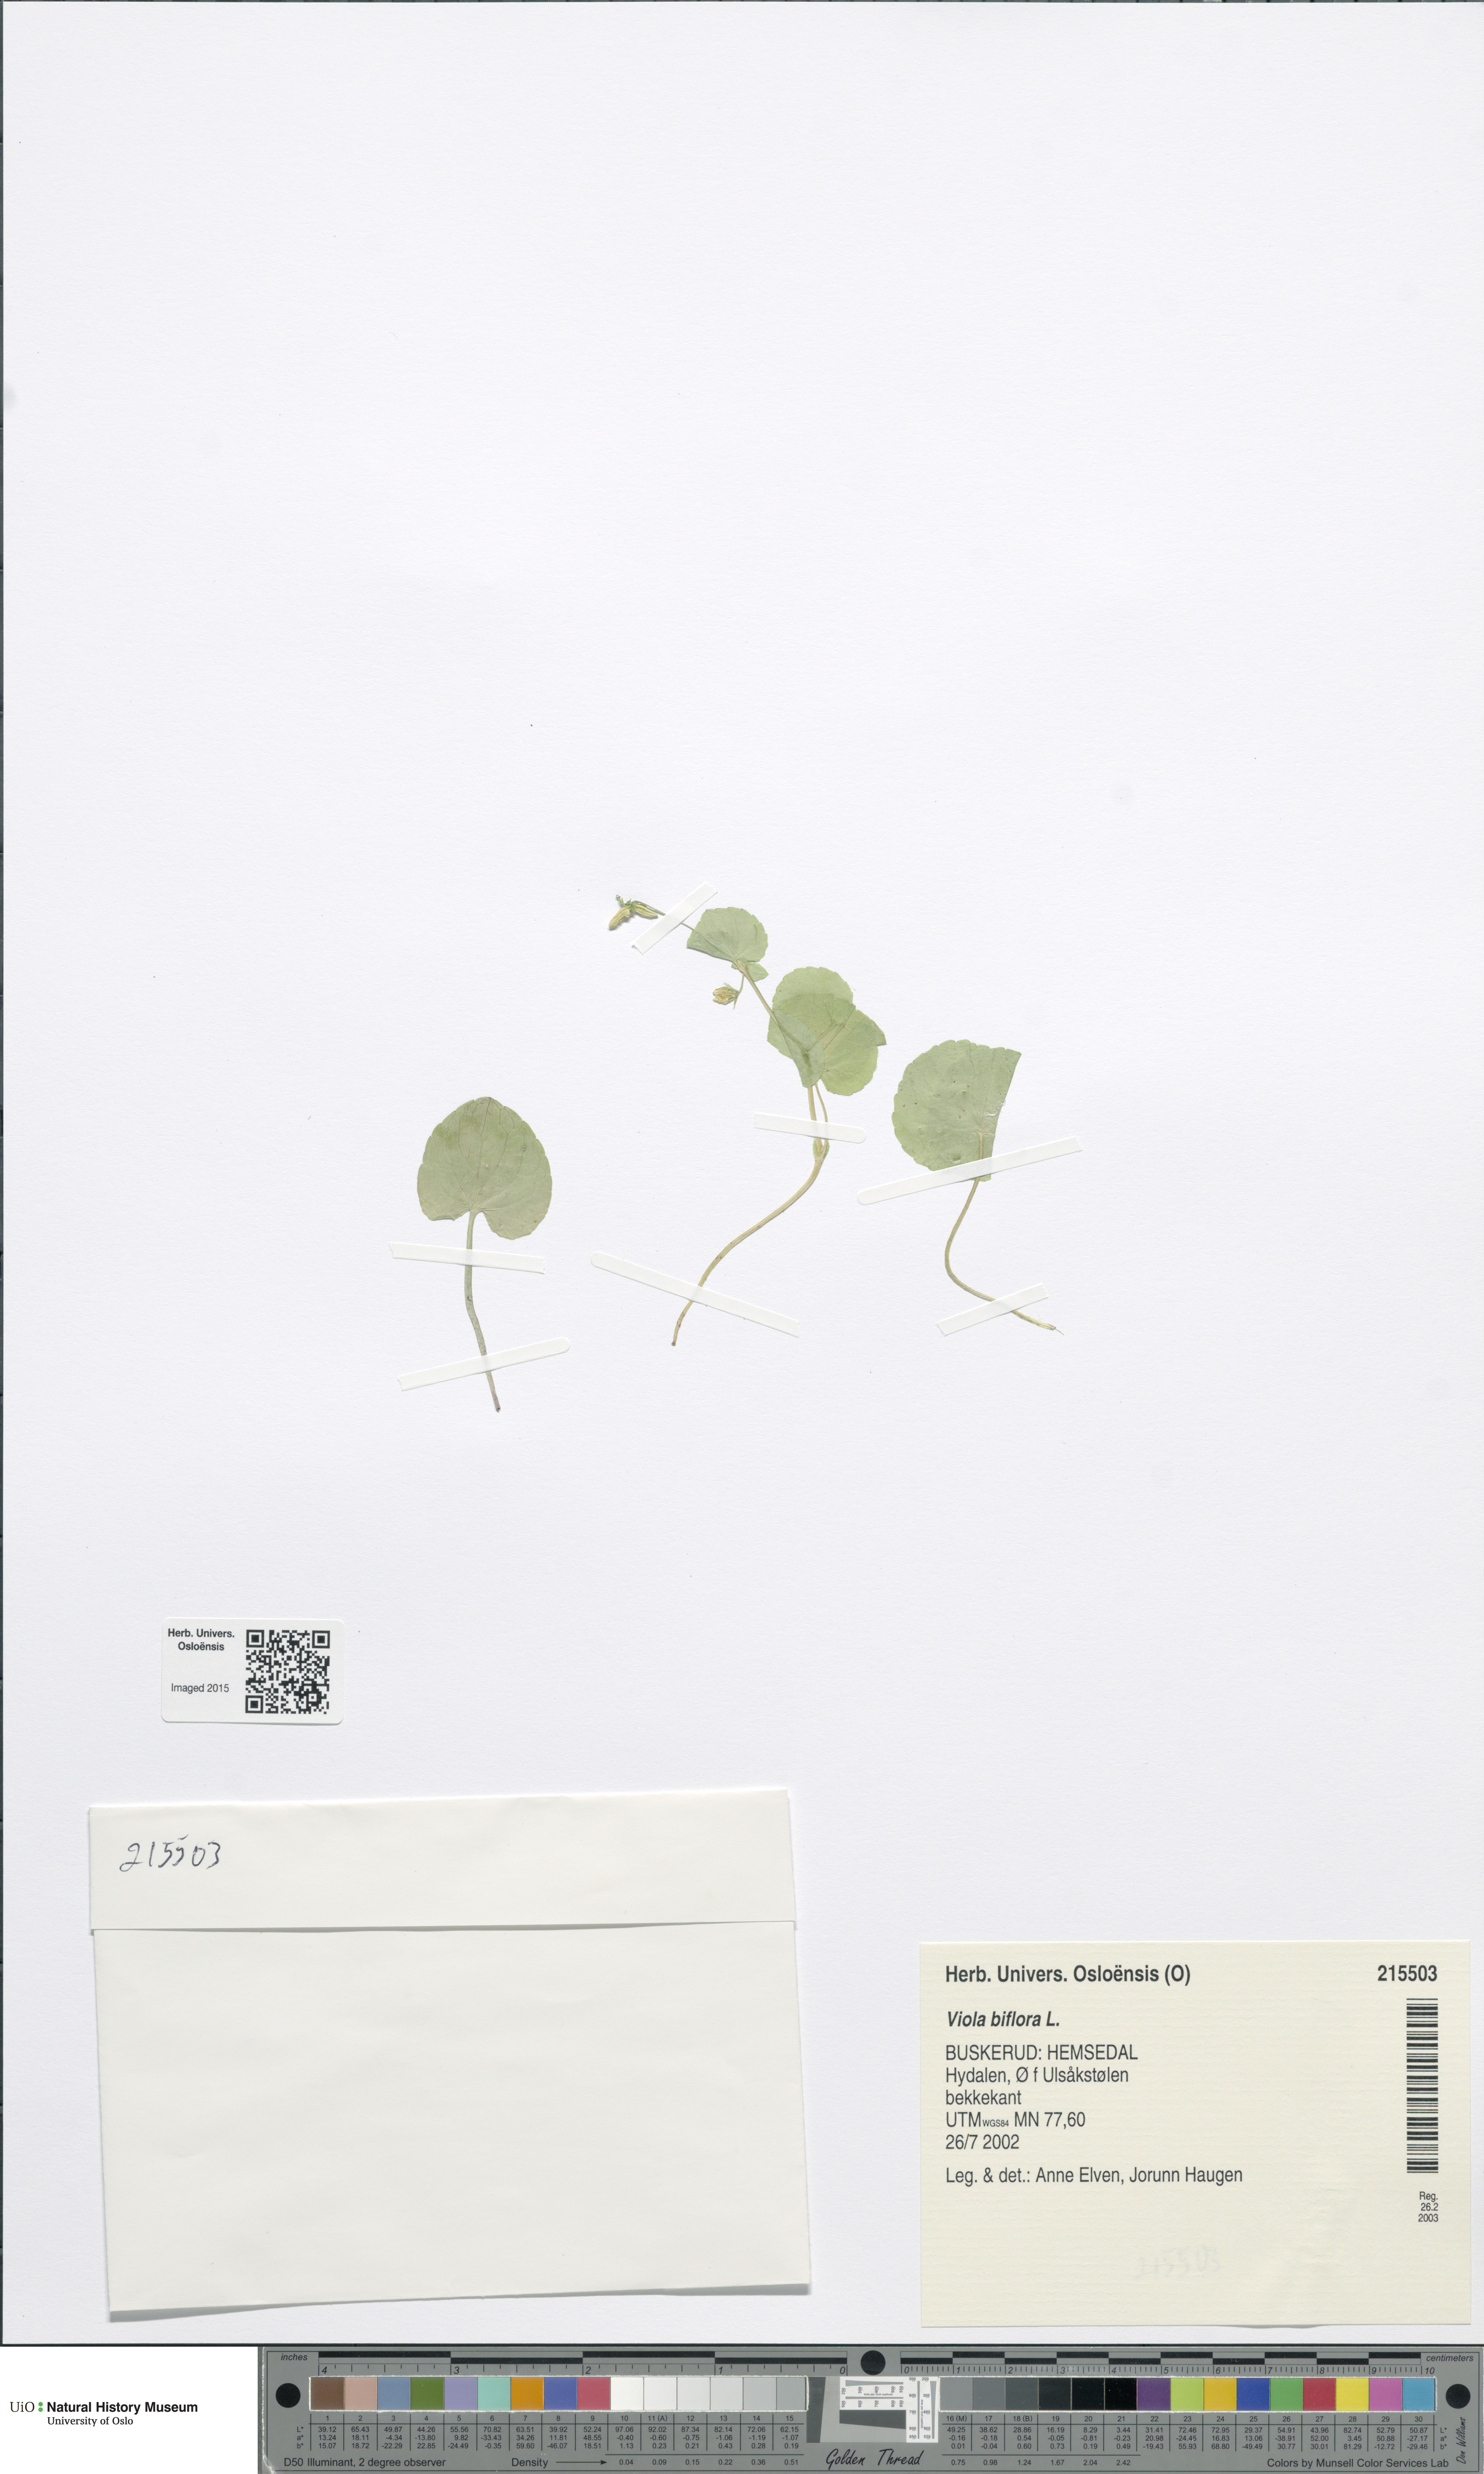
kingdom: Plantae
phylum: Tracheophyta
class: Magnoliopsida
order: Malpighiales
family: Violaceae
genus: Viola
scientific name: Viola biflora
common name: Alpine yellow violet
